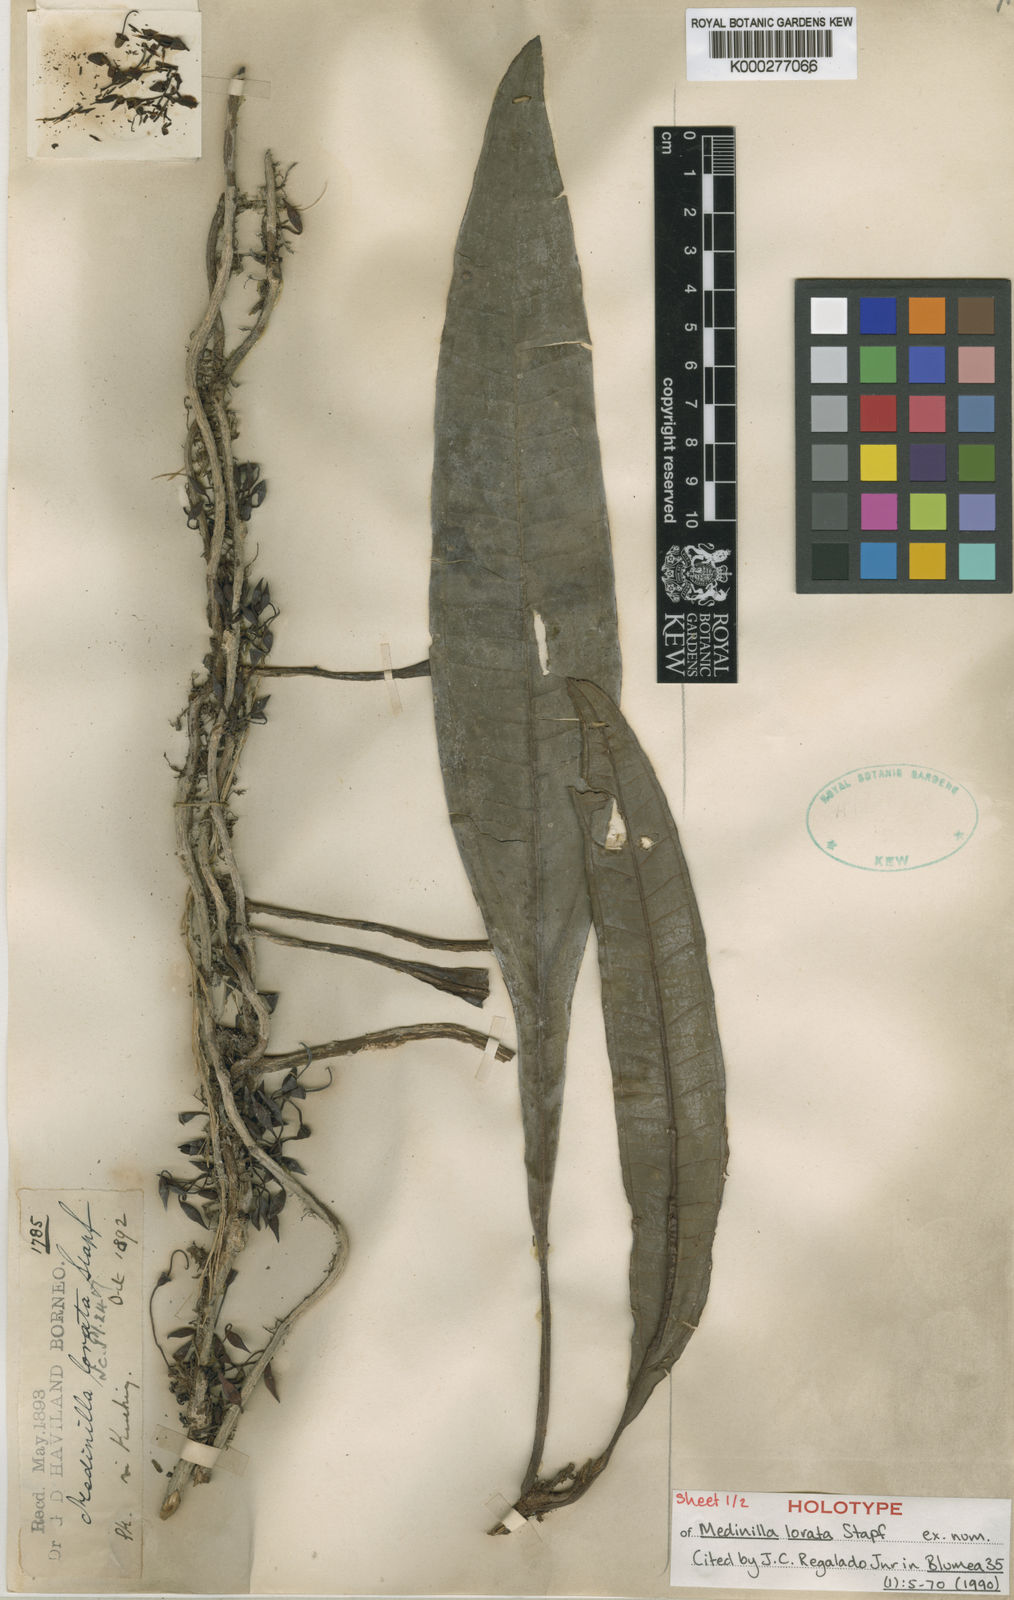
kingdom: Plantae
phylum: Tracheophyta
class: Magnoliopsida
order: Myrtales
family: Melastomataceae
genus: Heteroblemma
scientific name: Heteroblemma loratum
